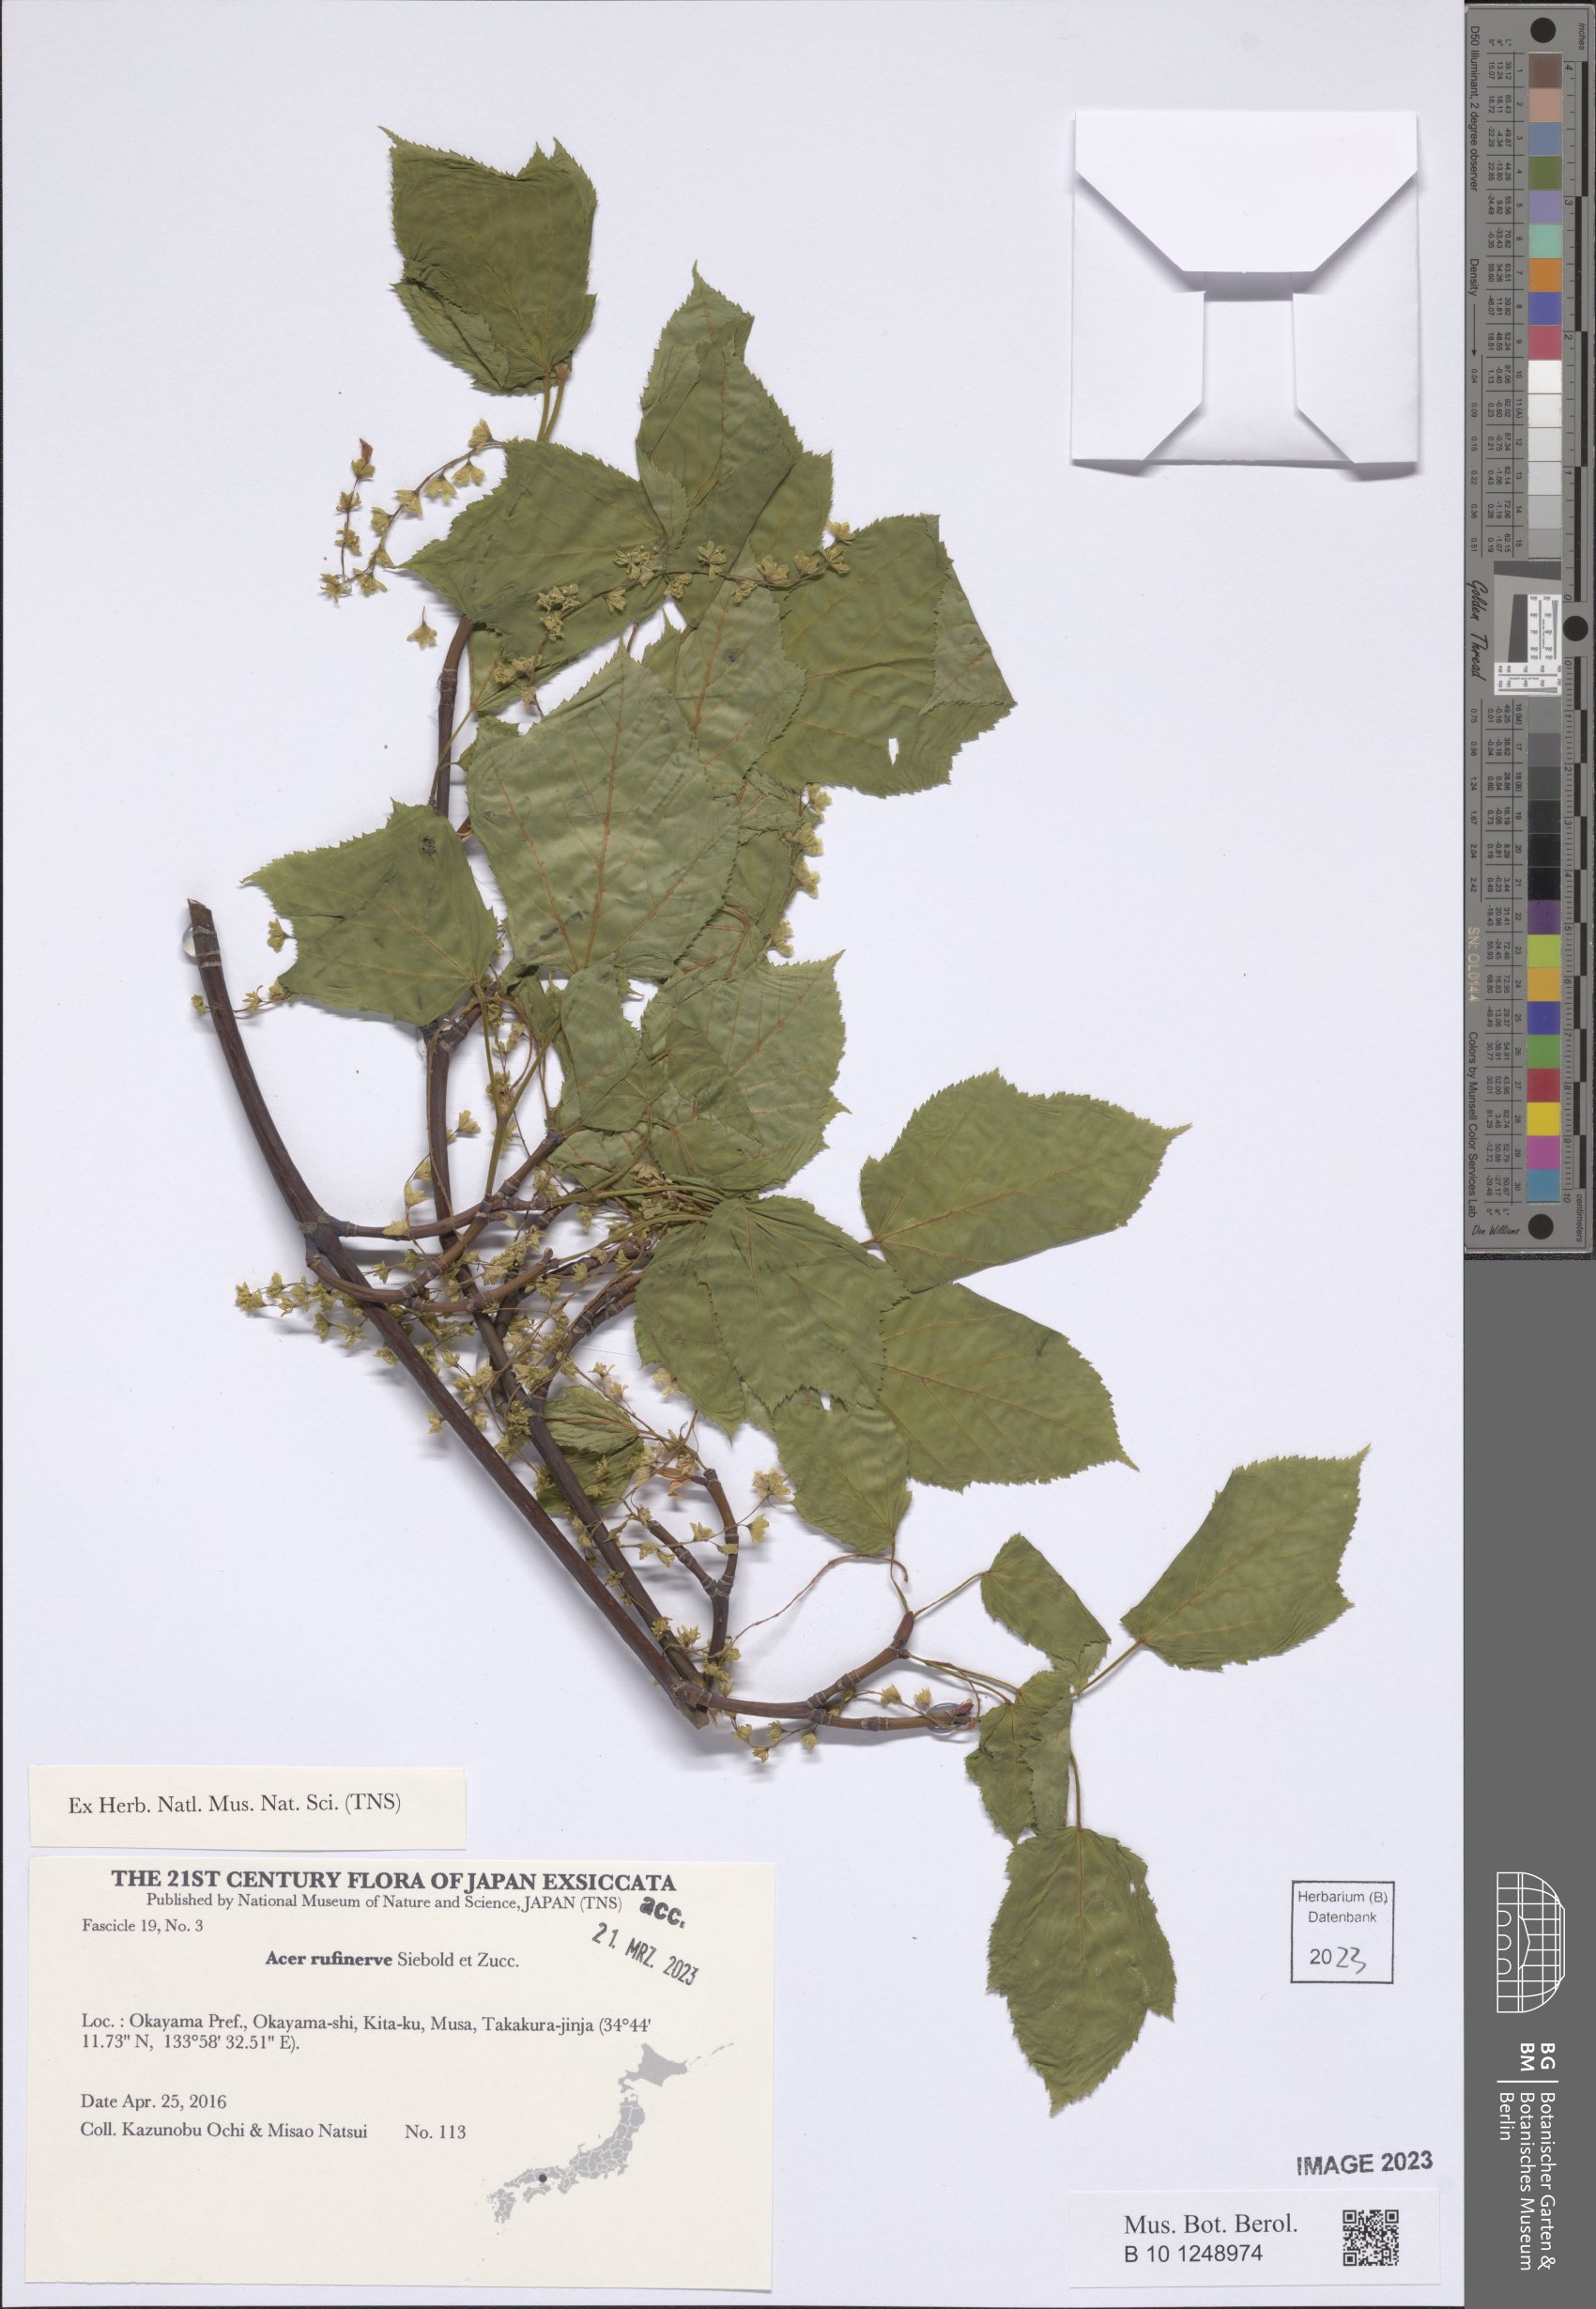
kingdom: Plantae
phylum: Tracheophyta
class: Magnoliopsida
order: Sapindales
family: Sapindaceae
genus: Acer
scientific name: Acer rufinerve
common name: Red veined maple
